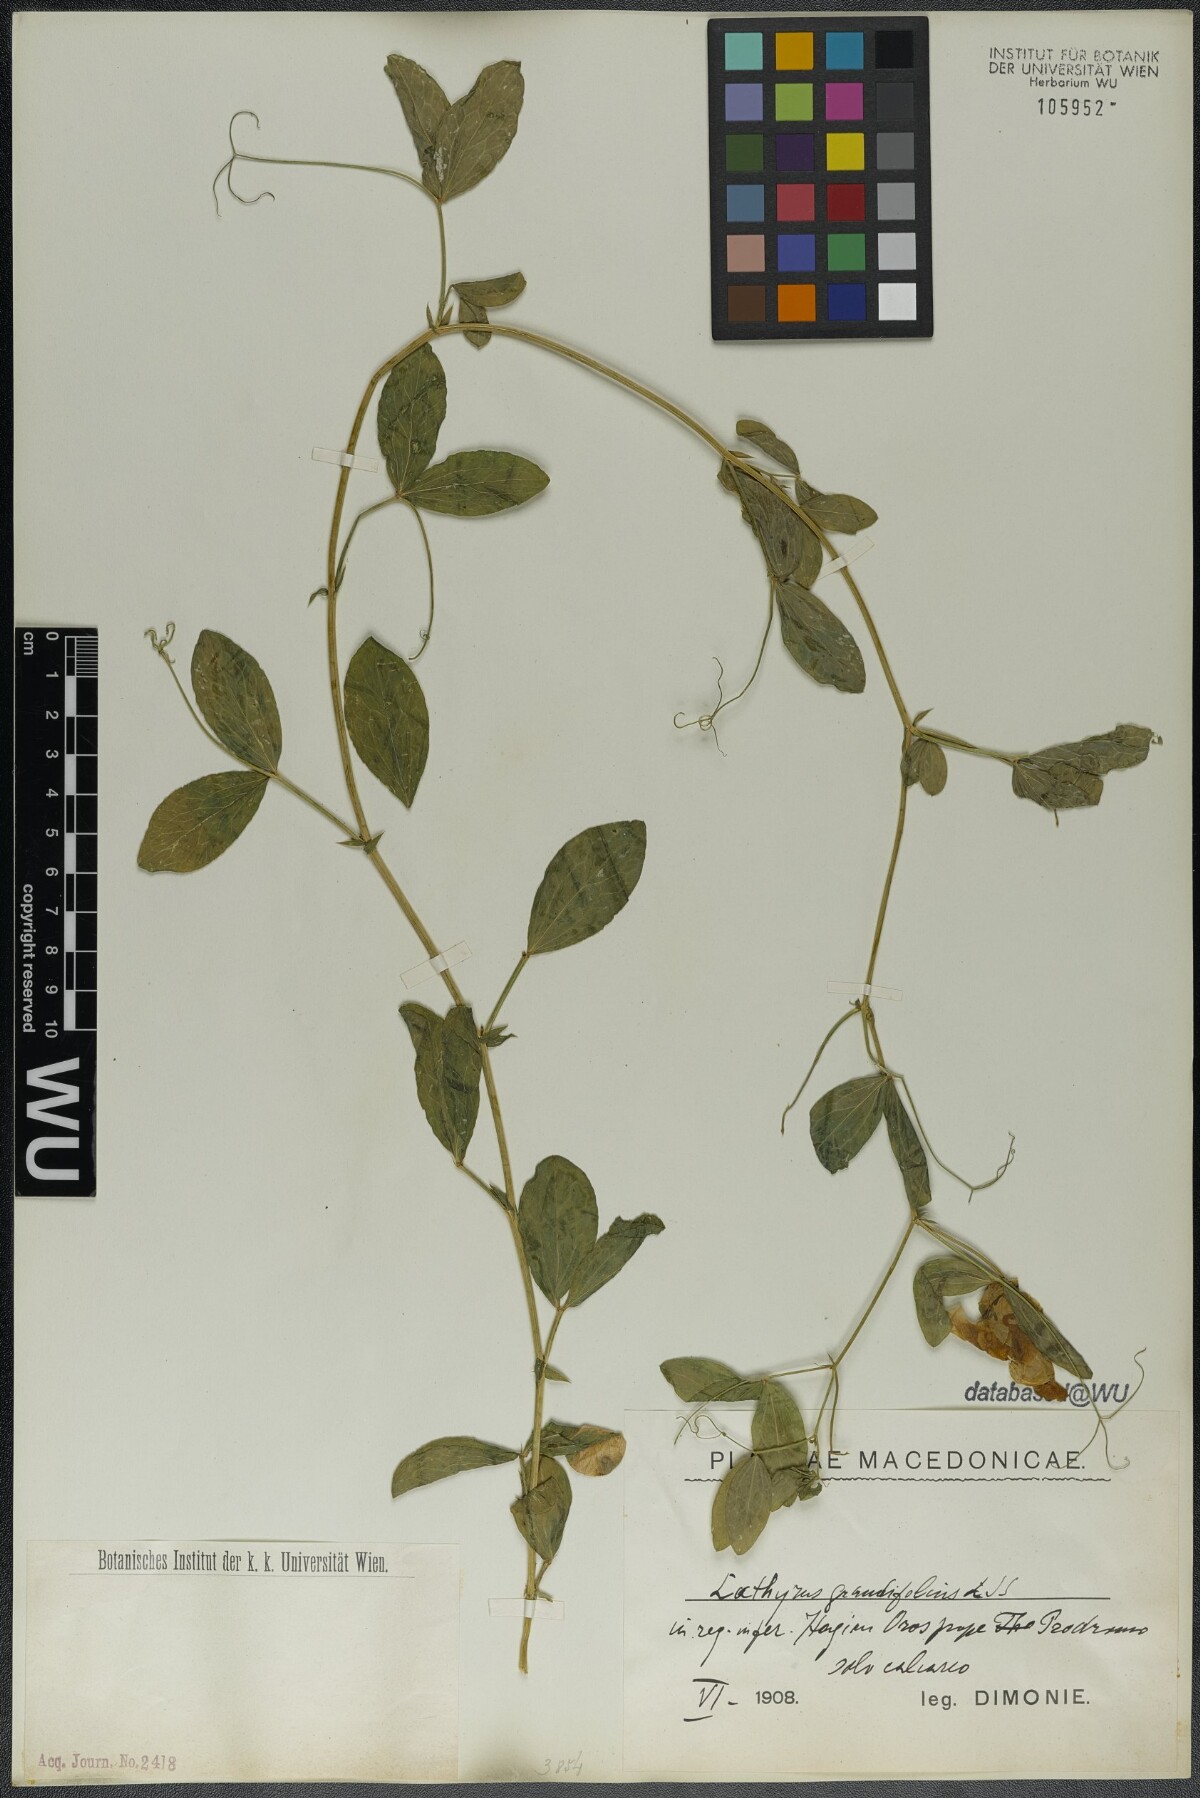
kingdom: Plantae
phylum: Tracheophyta
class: Magnoliopsida
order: Fabales
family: Fabaceae
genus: Lathyrus
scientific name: Lathyrus grandiflorus
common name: Two-flowered everlasting-pea
